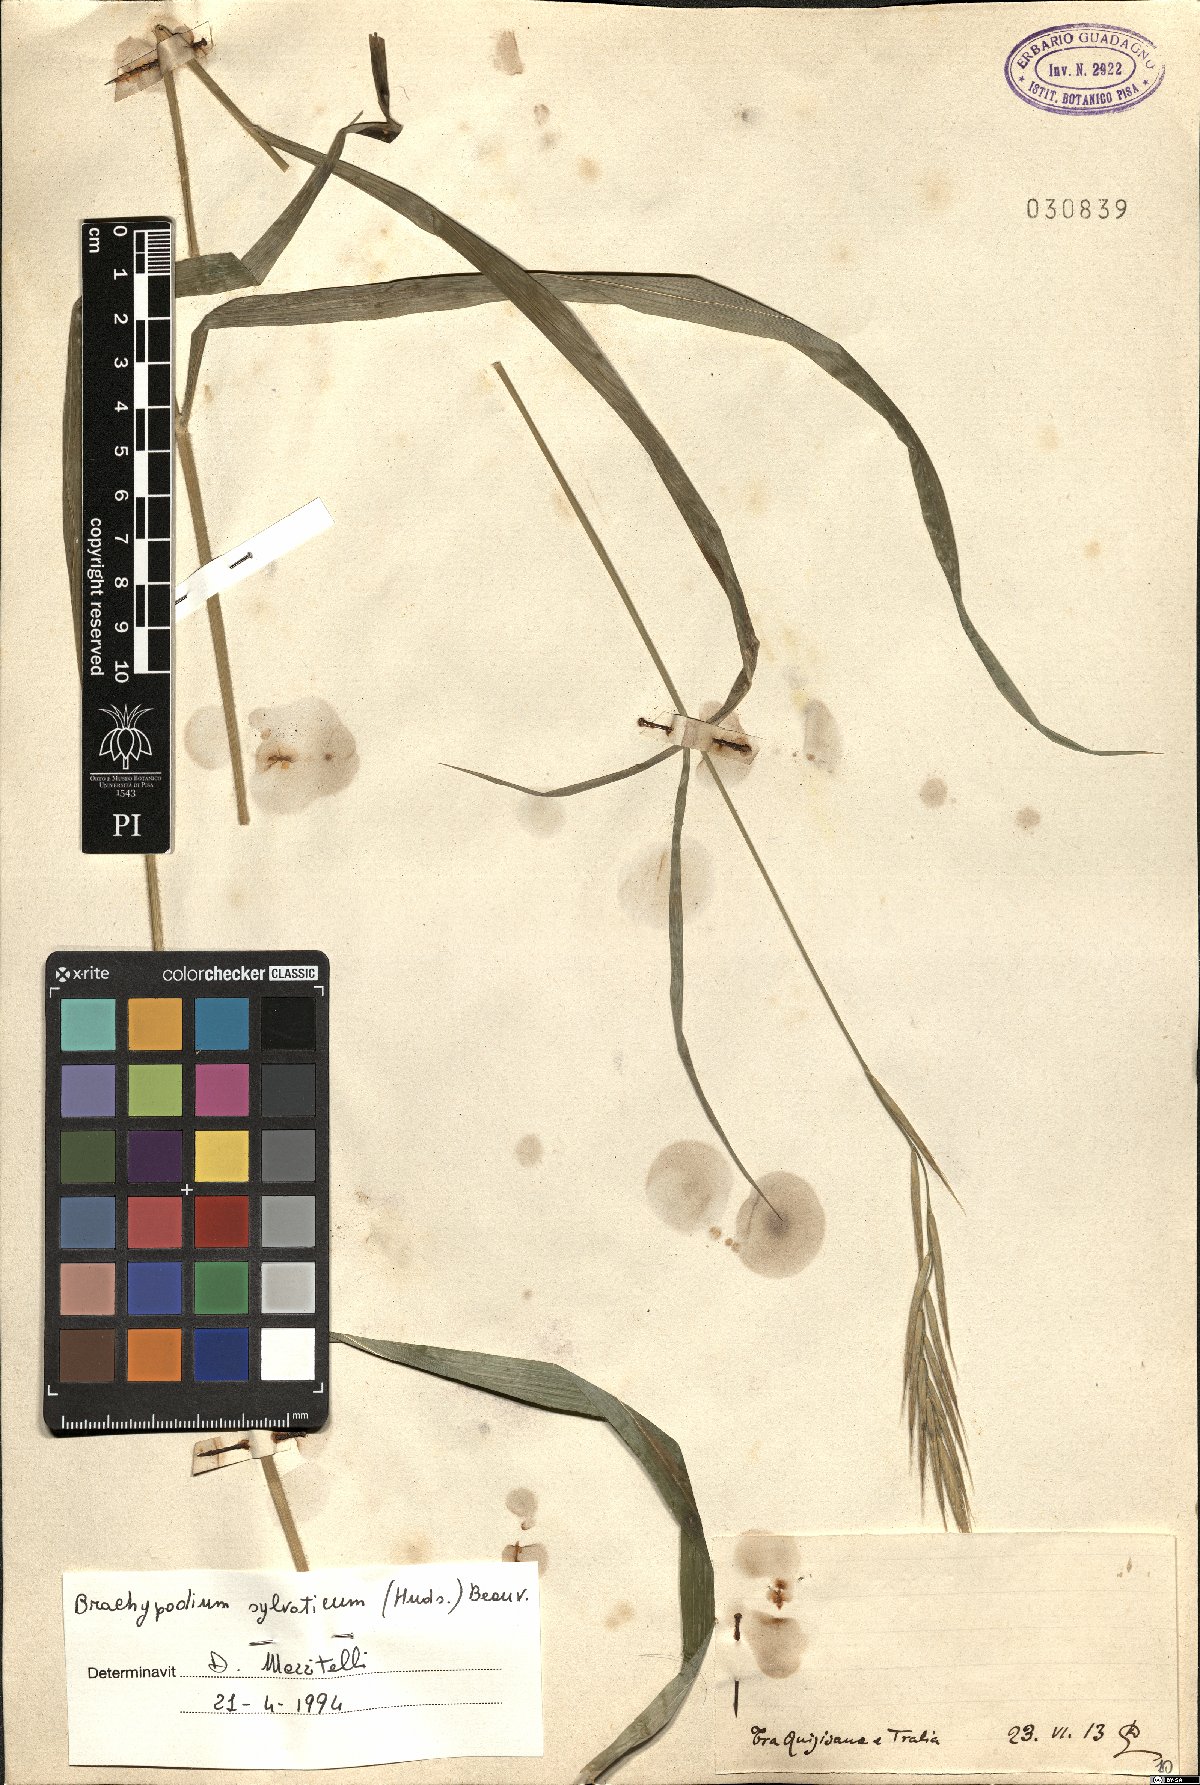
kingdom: Plantae
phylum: Tracheophyta
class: Liliopsida
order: Poales
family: Poaceae
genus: Brachypodium
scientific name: Brachypodium sylvaticum
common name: False-brome
